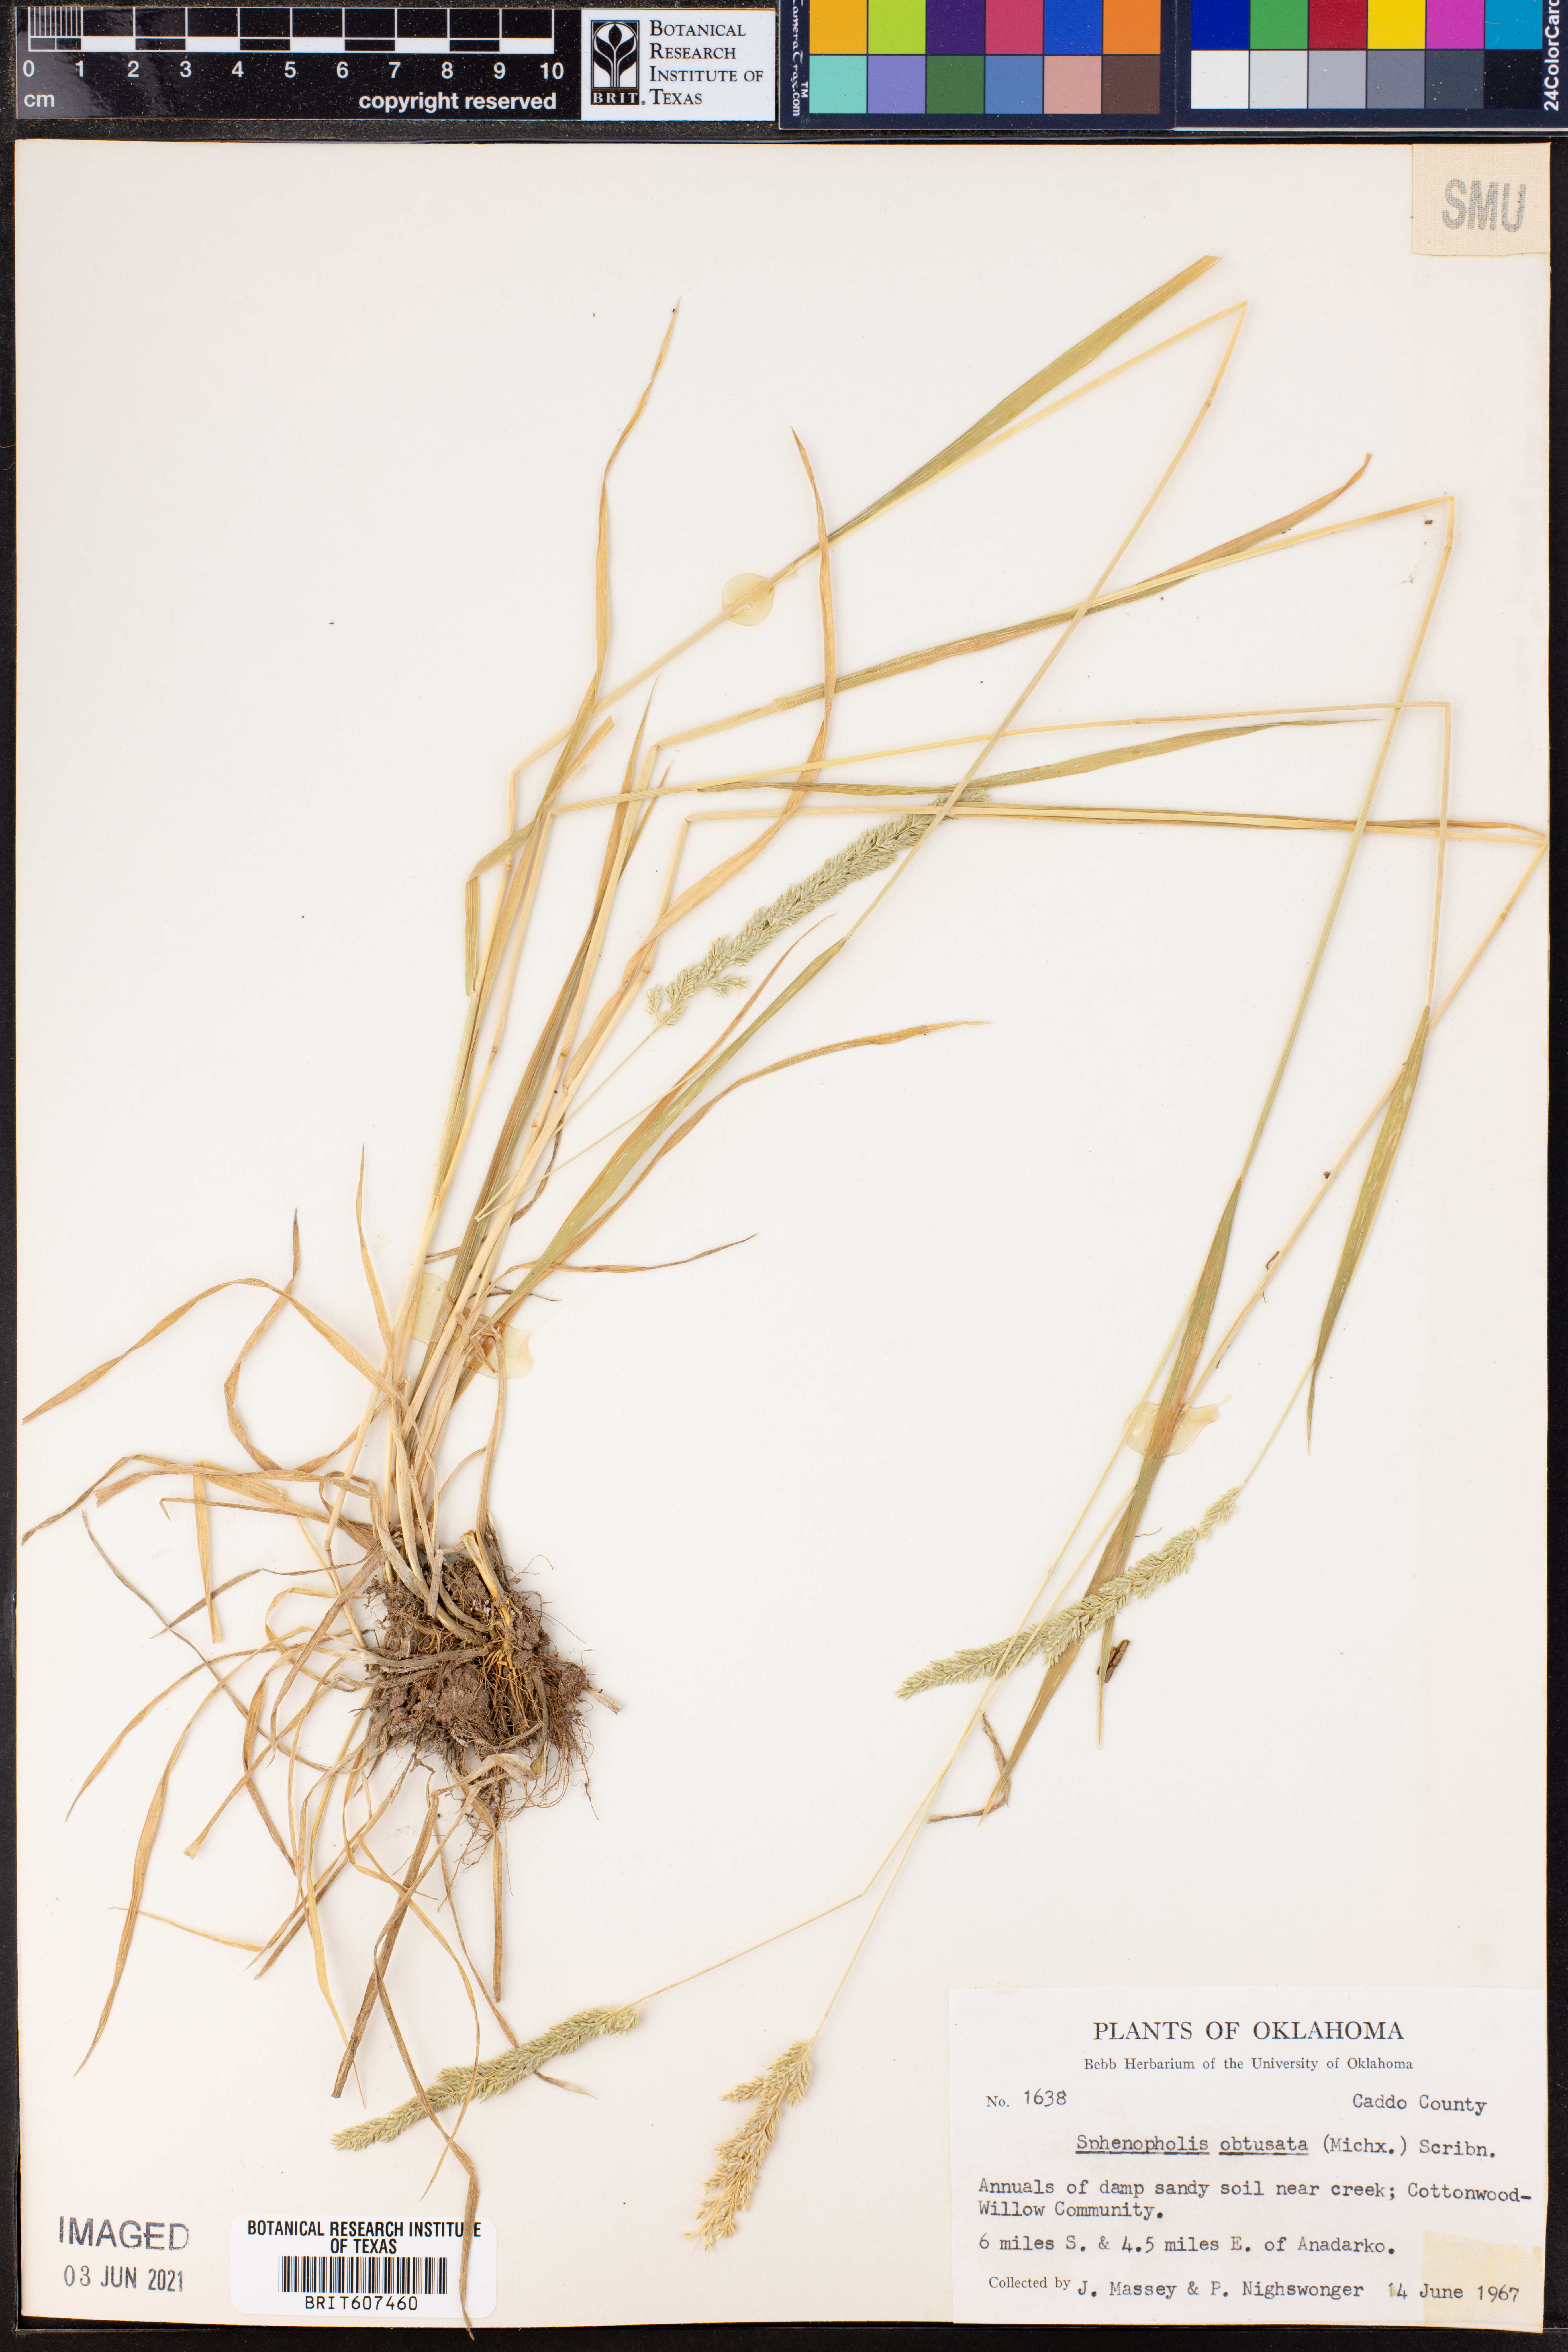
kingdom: Plantae
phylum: Tracheophyta
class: Liliopsida
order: Poales
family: Poaceae
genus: Sphenopholis
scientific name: Sphenopholis obtusata
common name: Prairie grass
